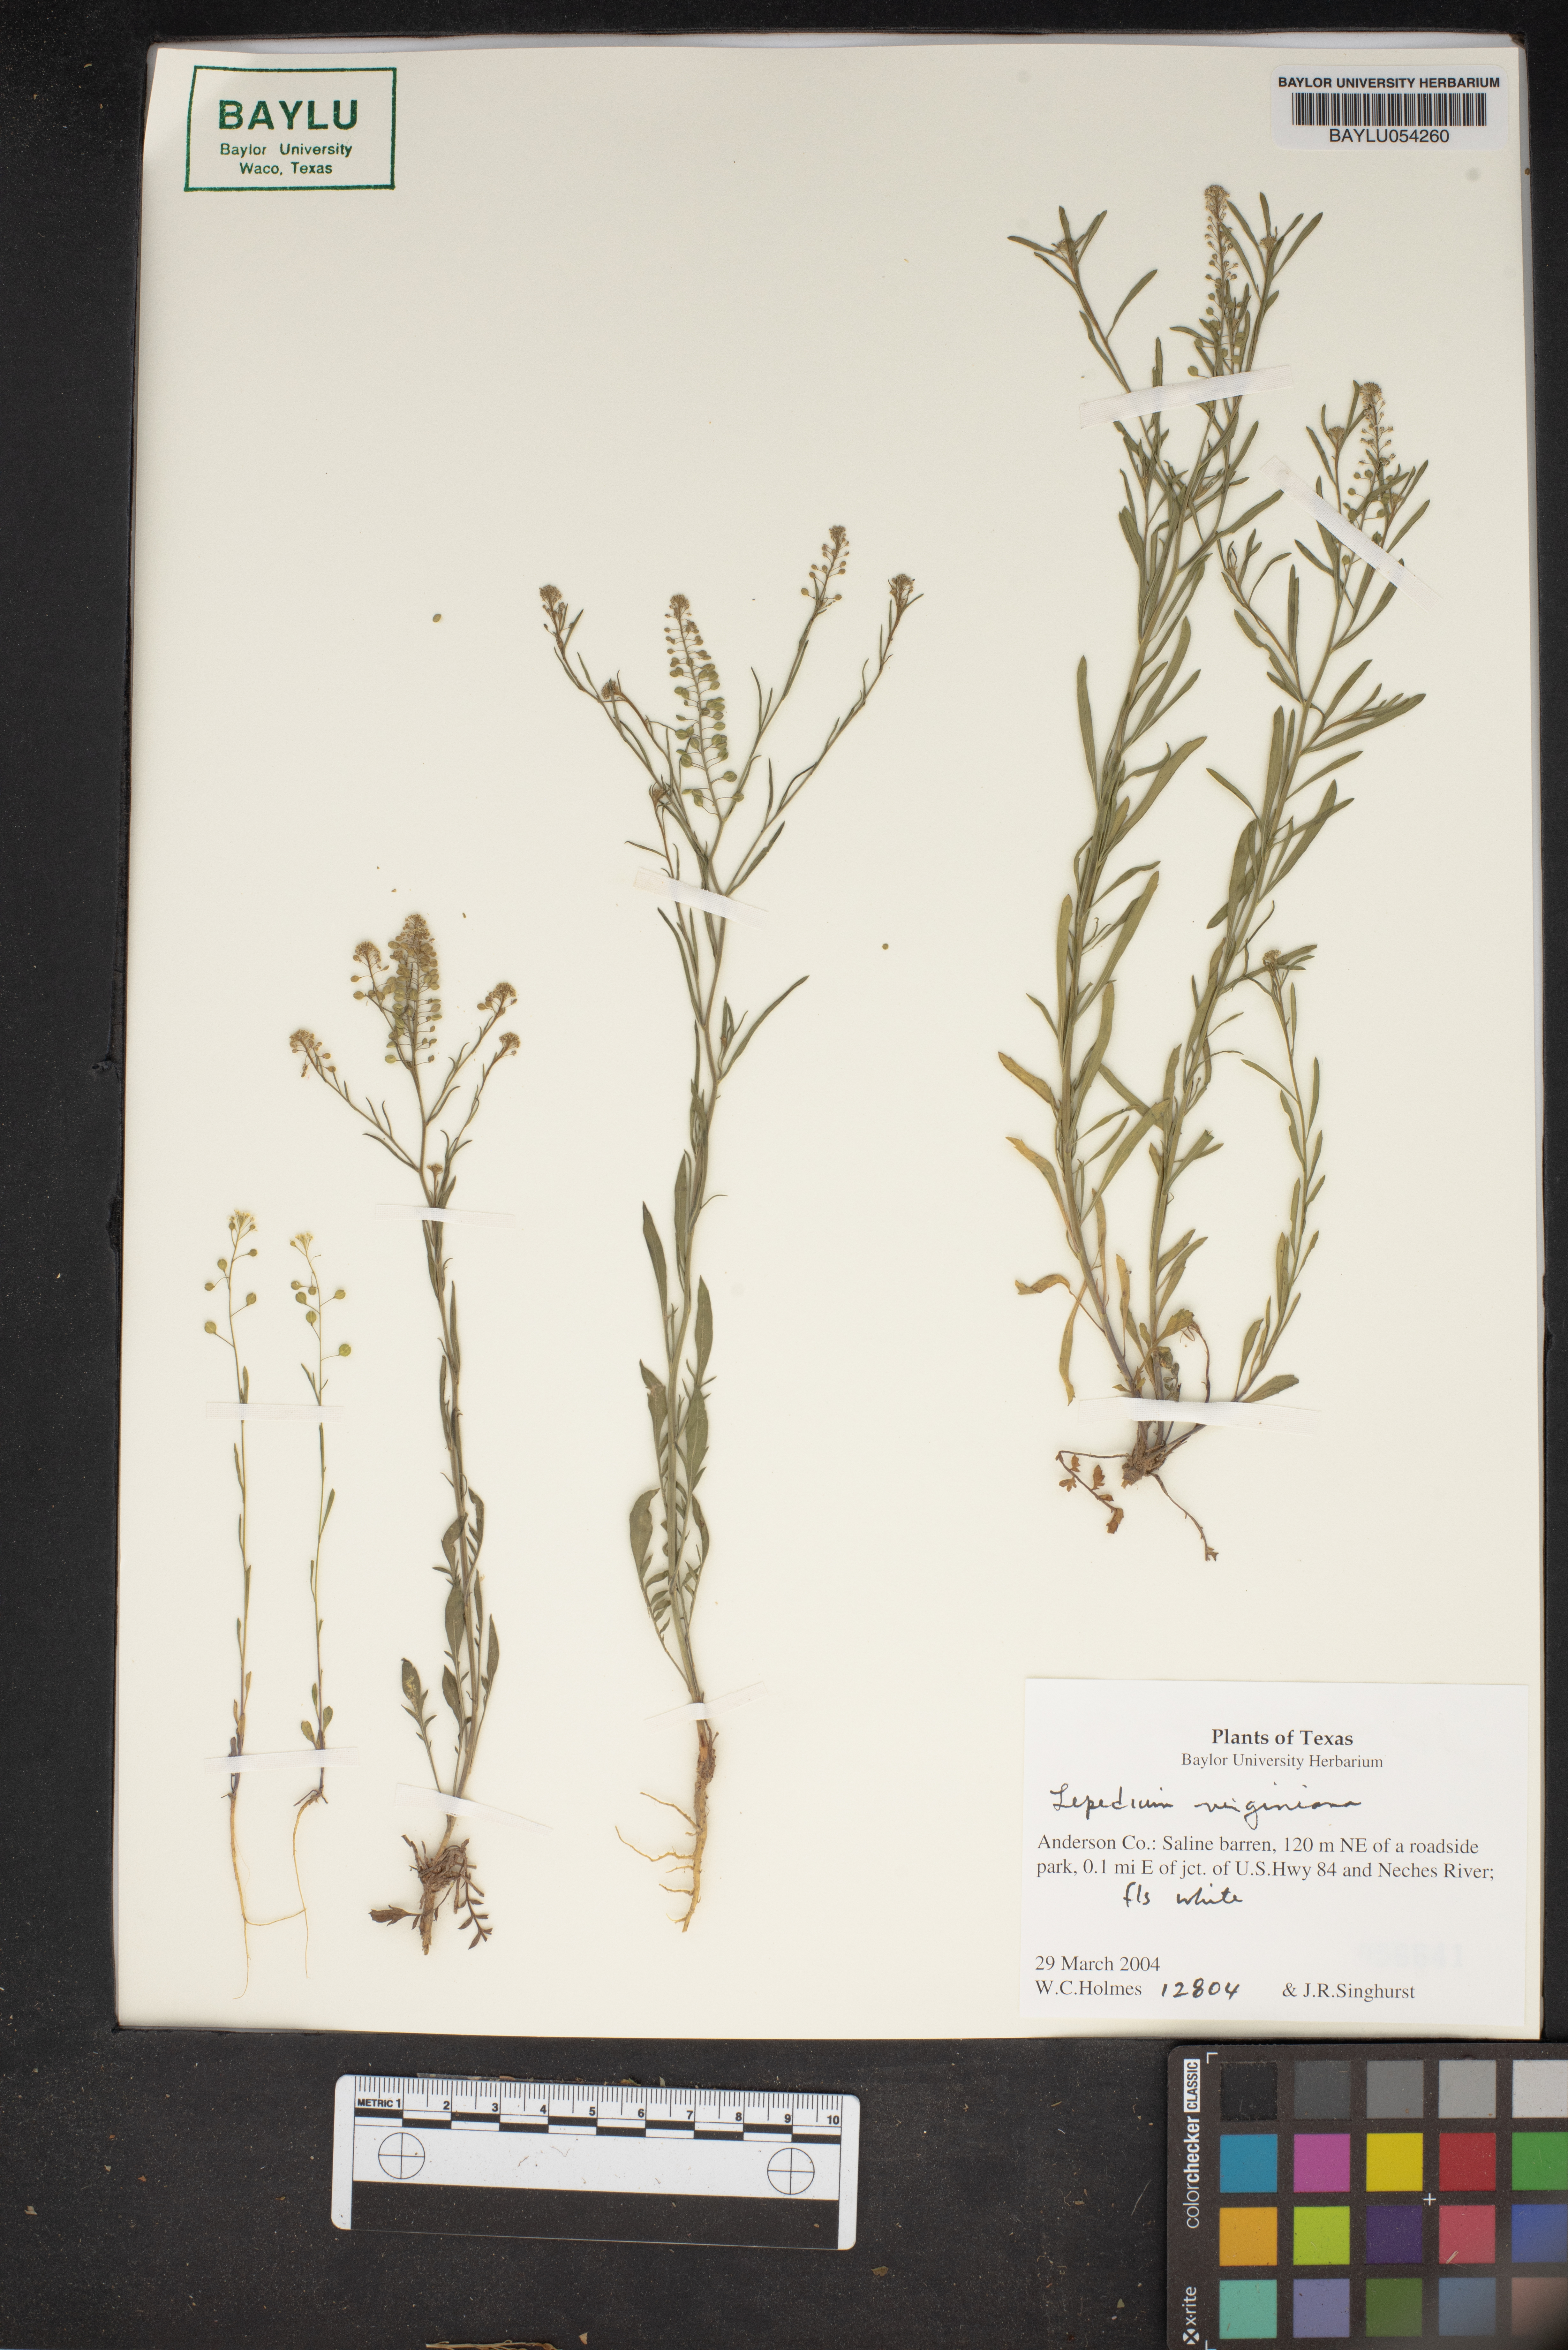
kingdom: Plantae
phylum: Tracheophyta
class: Magnoliopsida
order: Brassicales
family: Brassicaceae
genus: Lepidium
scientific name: Lepidium virginicum
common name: Least pepperwort
